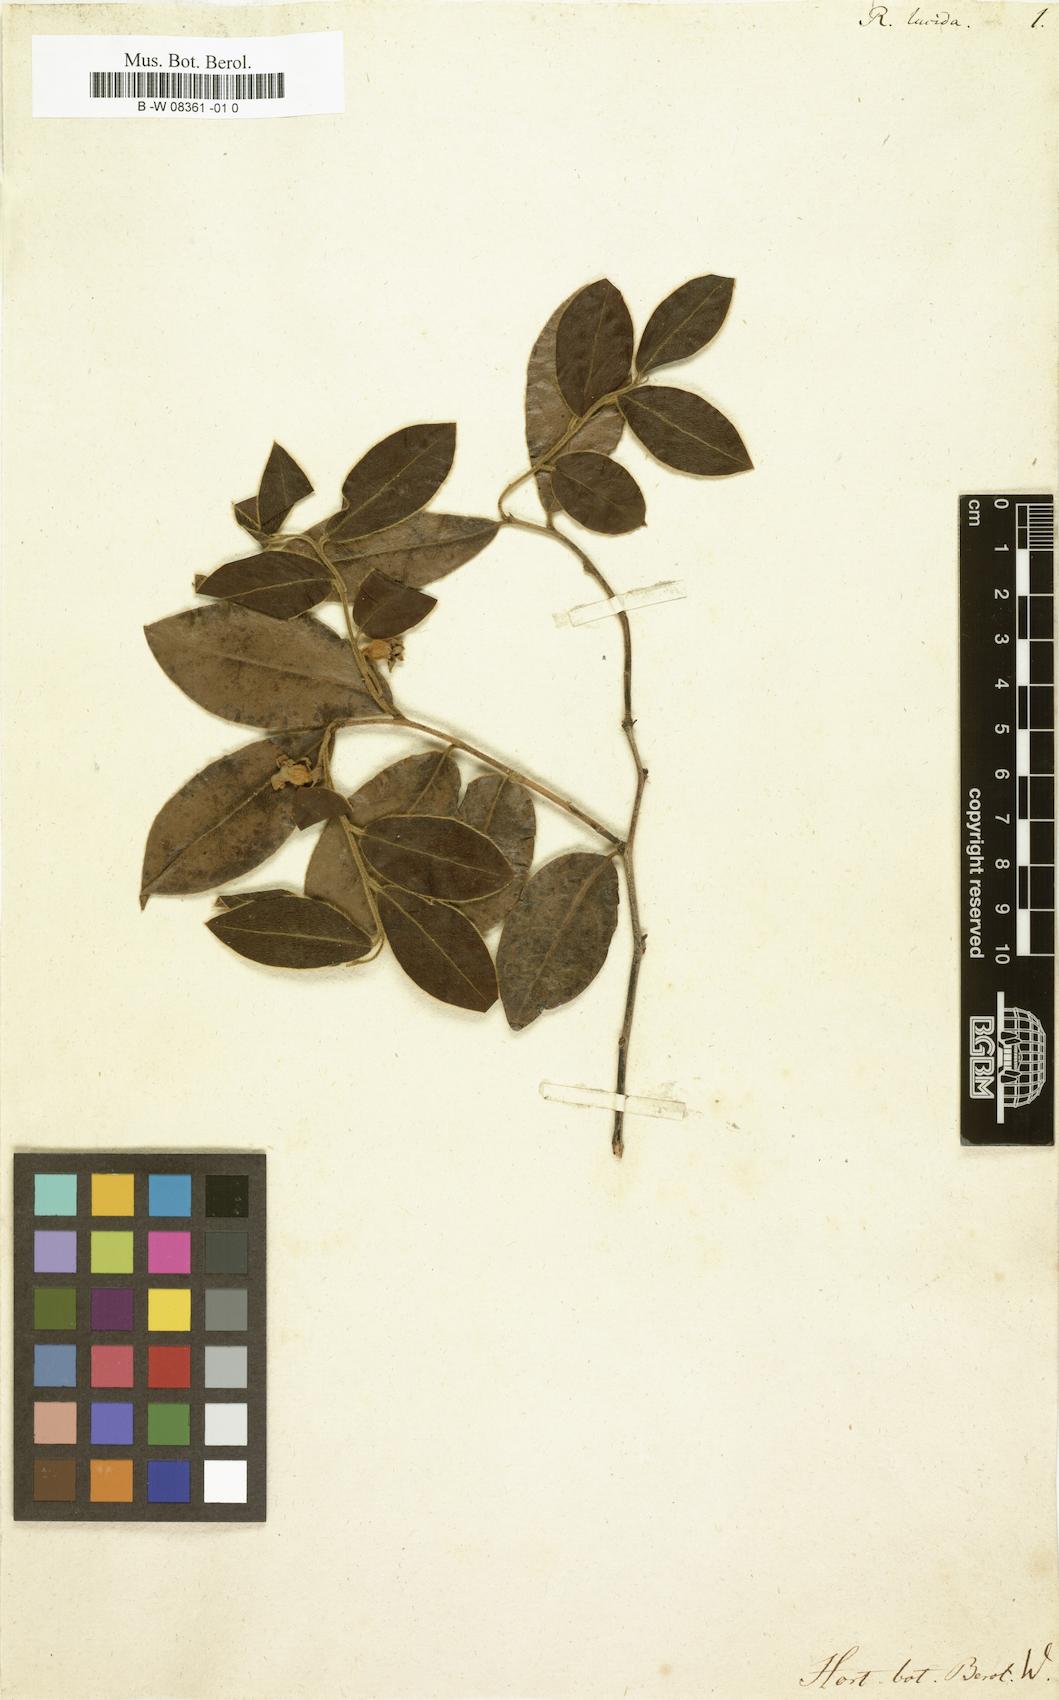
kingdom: Plantae
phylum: Tracheophyta
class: Magnoliopsida
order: Ericales
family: Ebenaceae
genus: Diospyros
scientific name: Diospyros whyteana
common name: Bladder-nut
